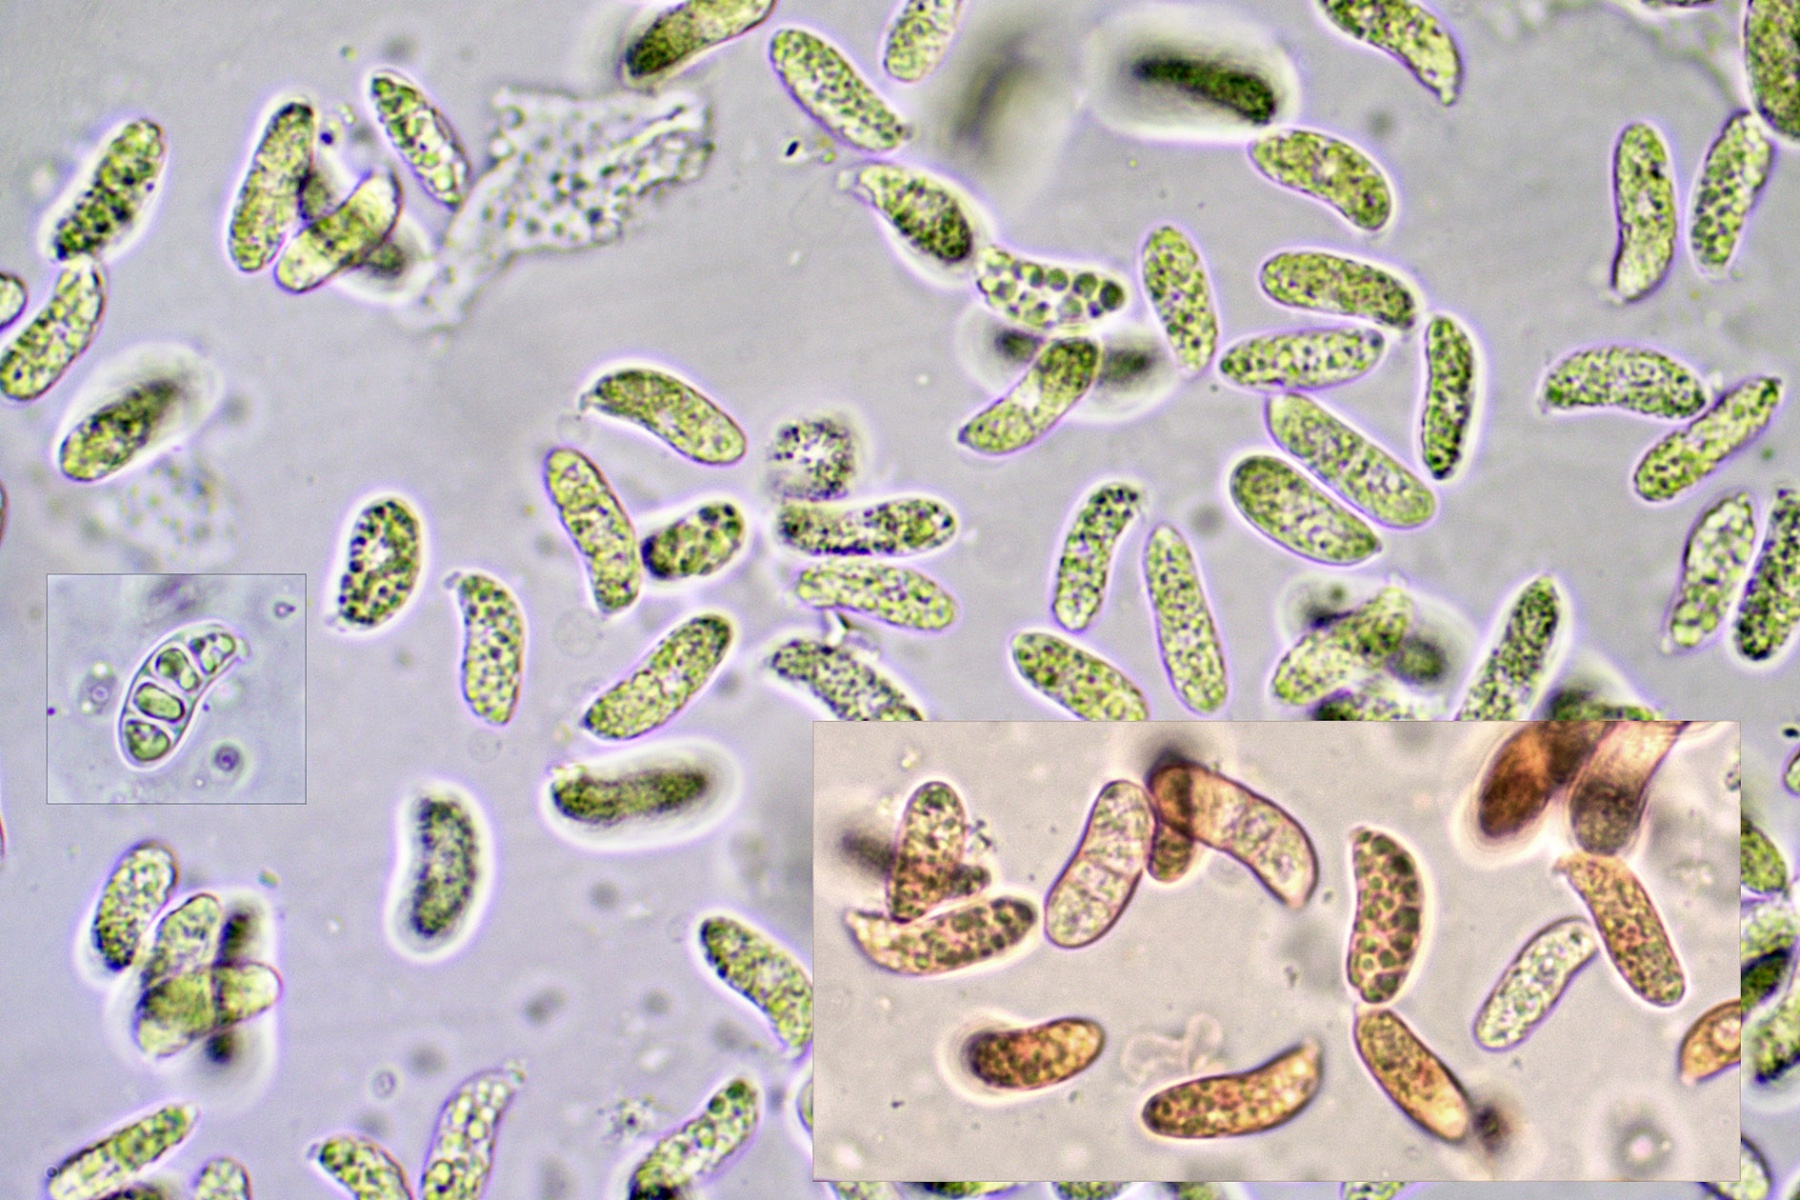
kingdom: Fungi
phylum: Basidiomycota
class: Dacrymycetes
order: Dacrymycetales
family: Dacrymycetaceae
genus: Dacrymyces
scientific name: Dacrymyces stillatus
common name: almindelig tåresvamp
